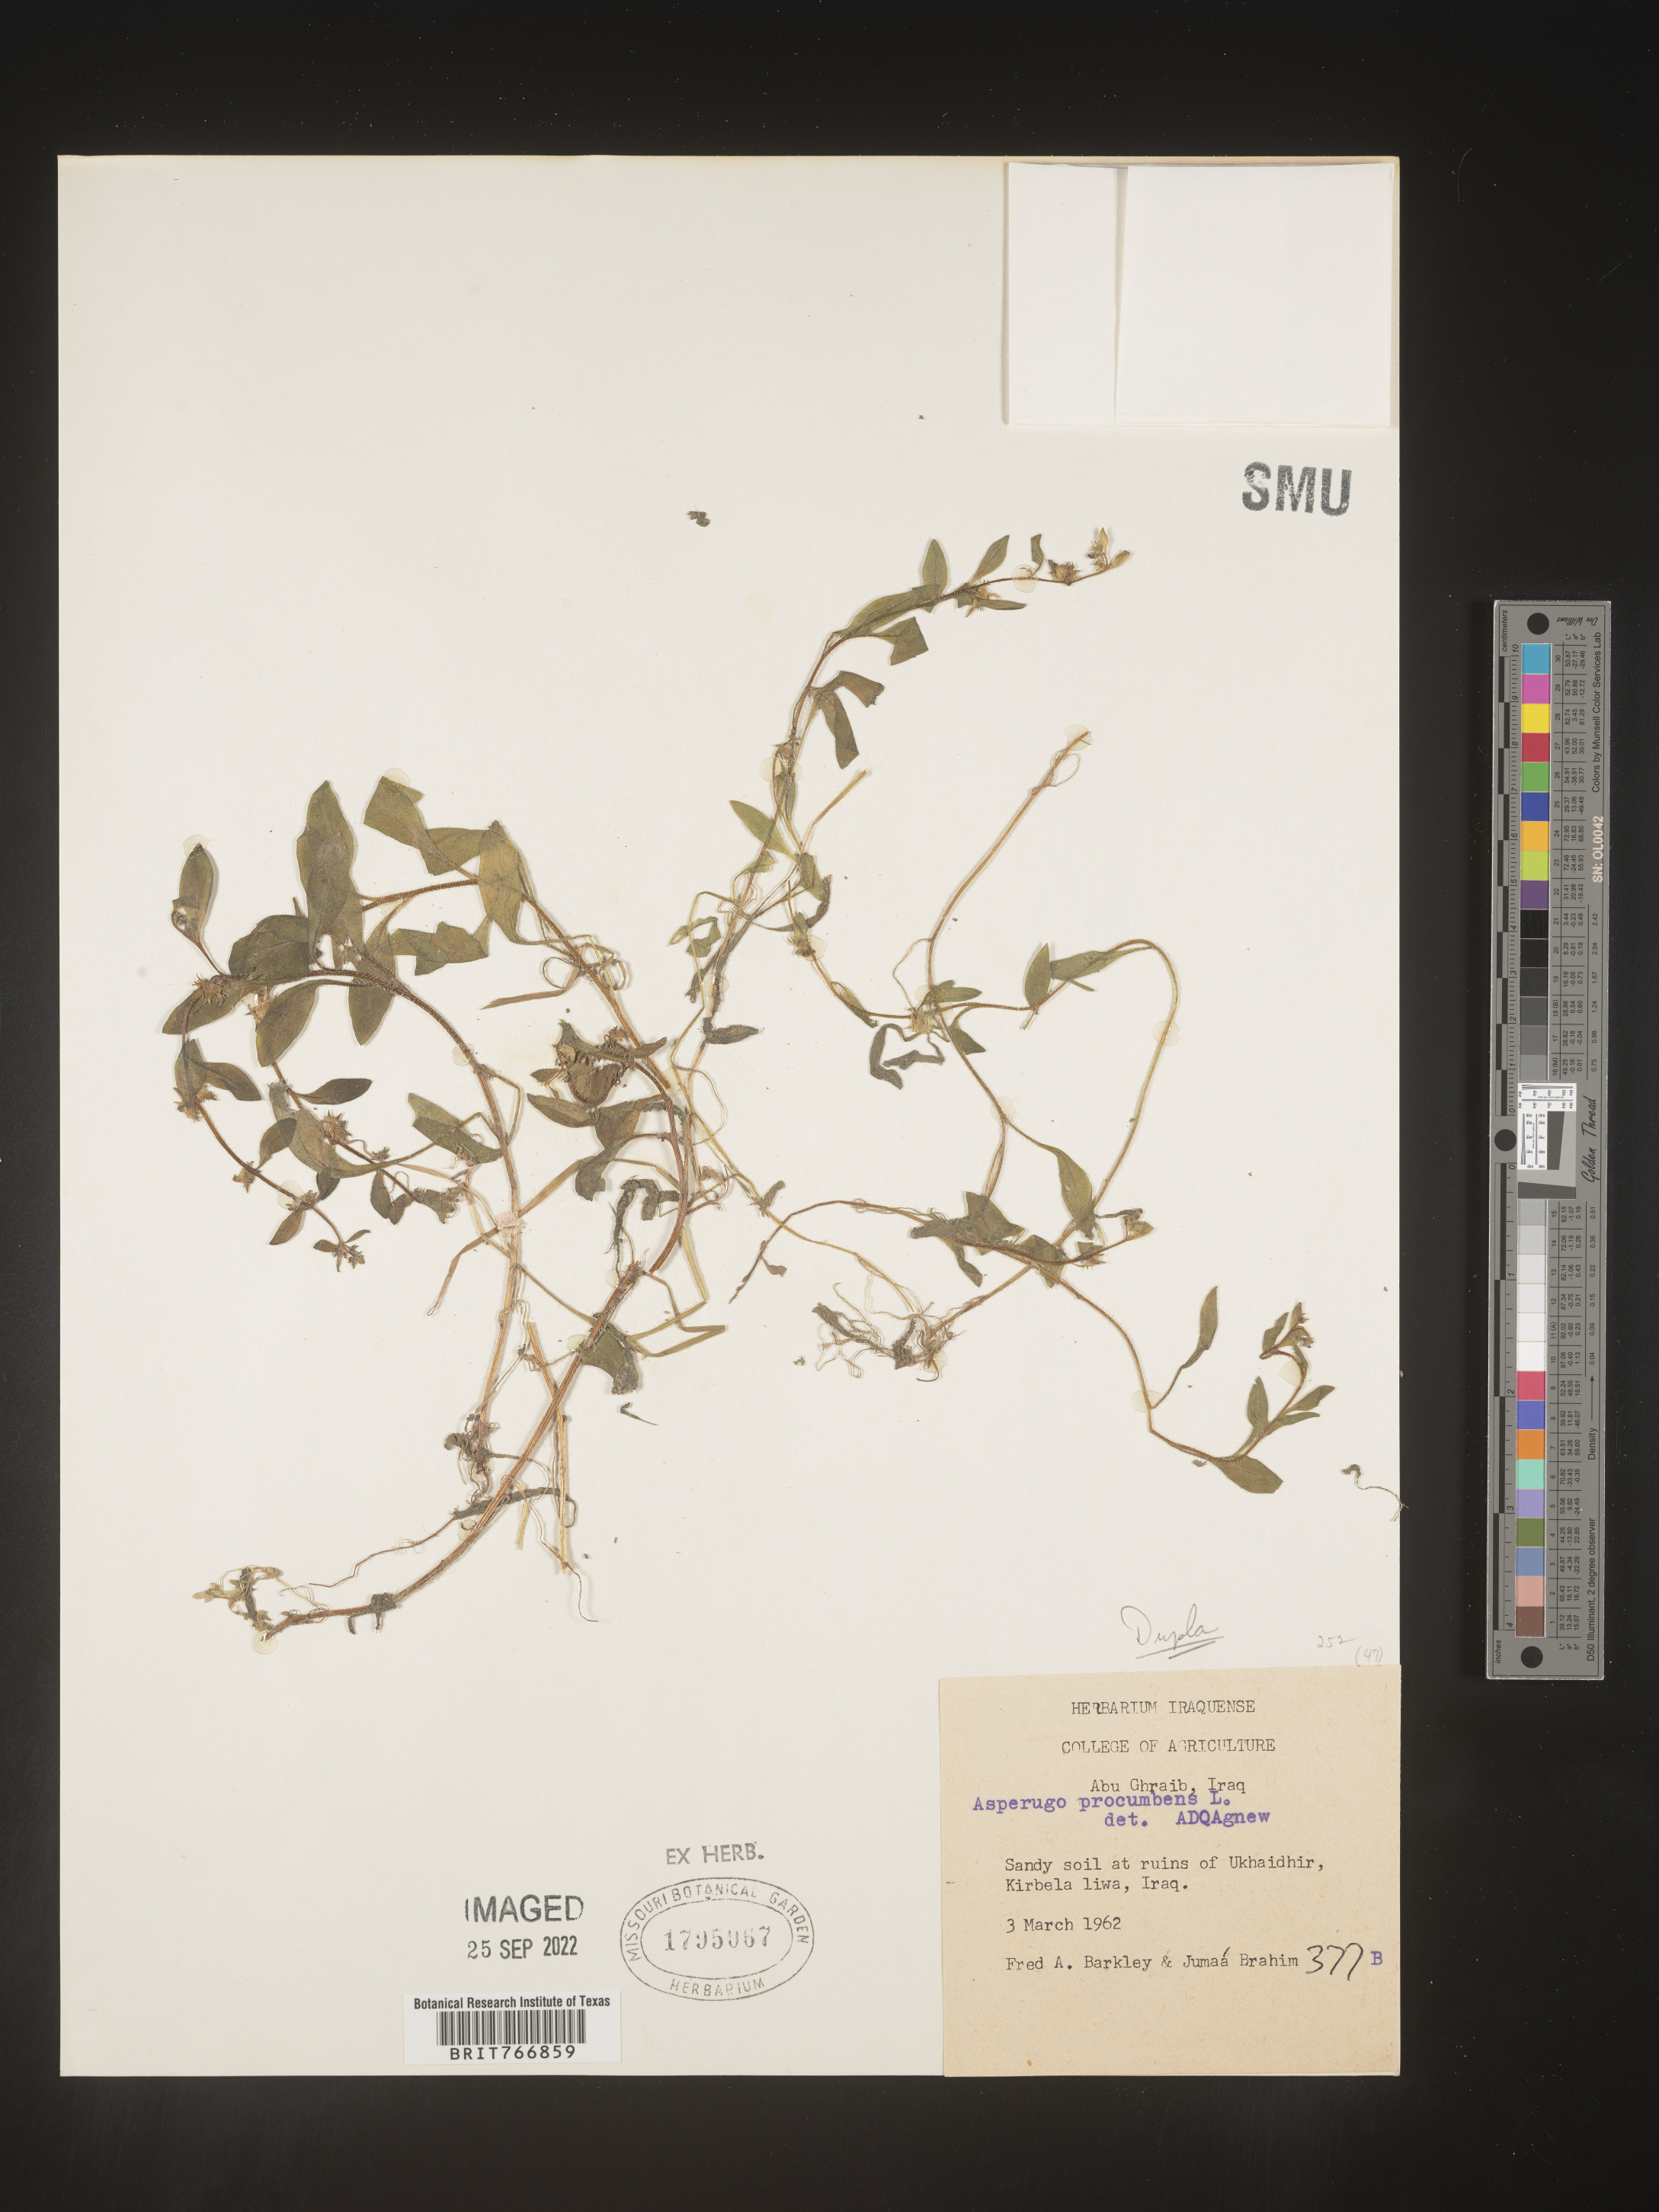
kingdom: Plantae
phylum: Tracheophyta
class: Magnoliopsida
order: Boraginales
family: Boraginaceae
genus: Asperugo
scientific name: Asperugo procumbens
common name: Madwort
